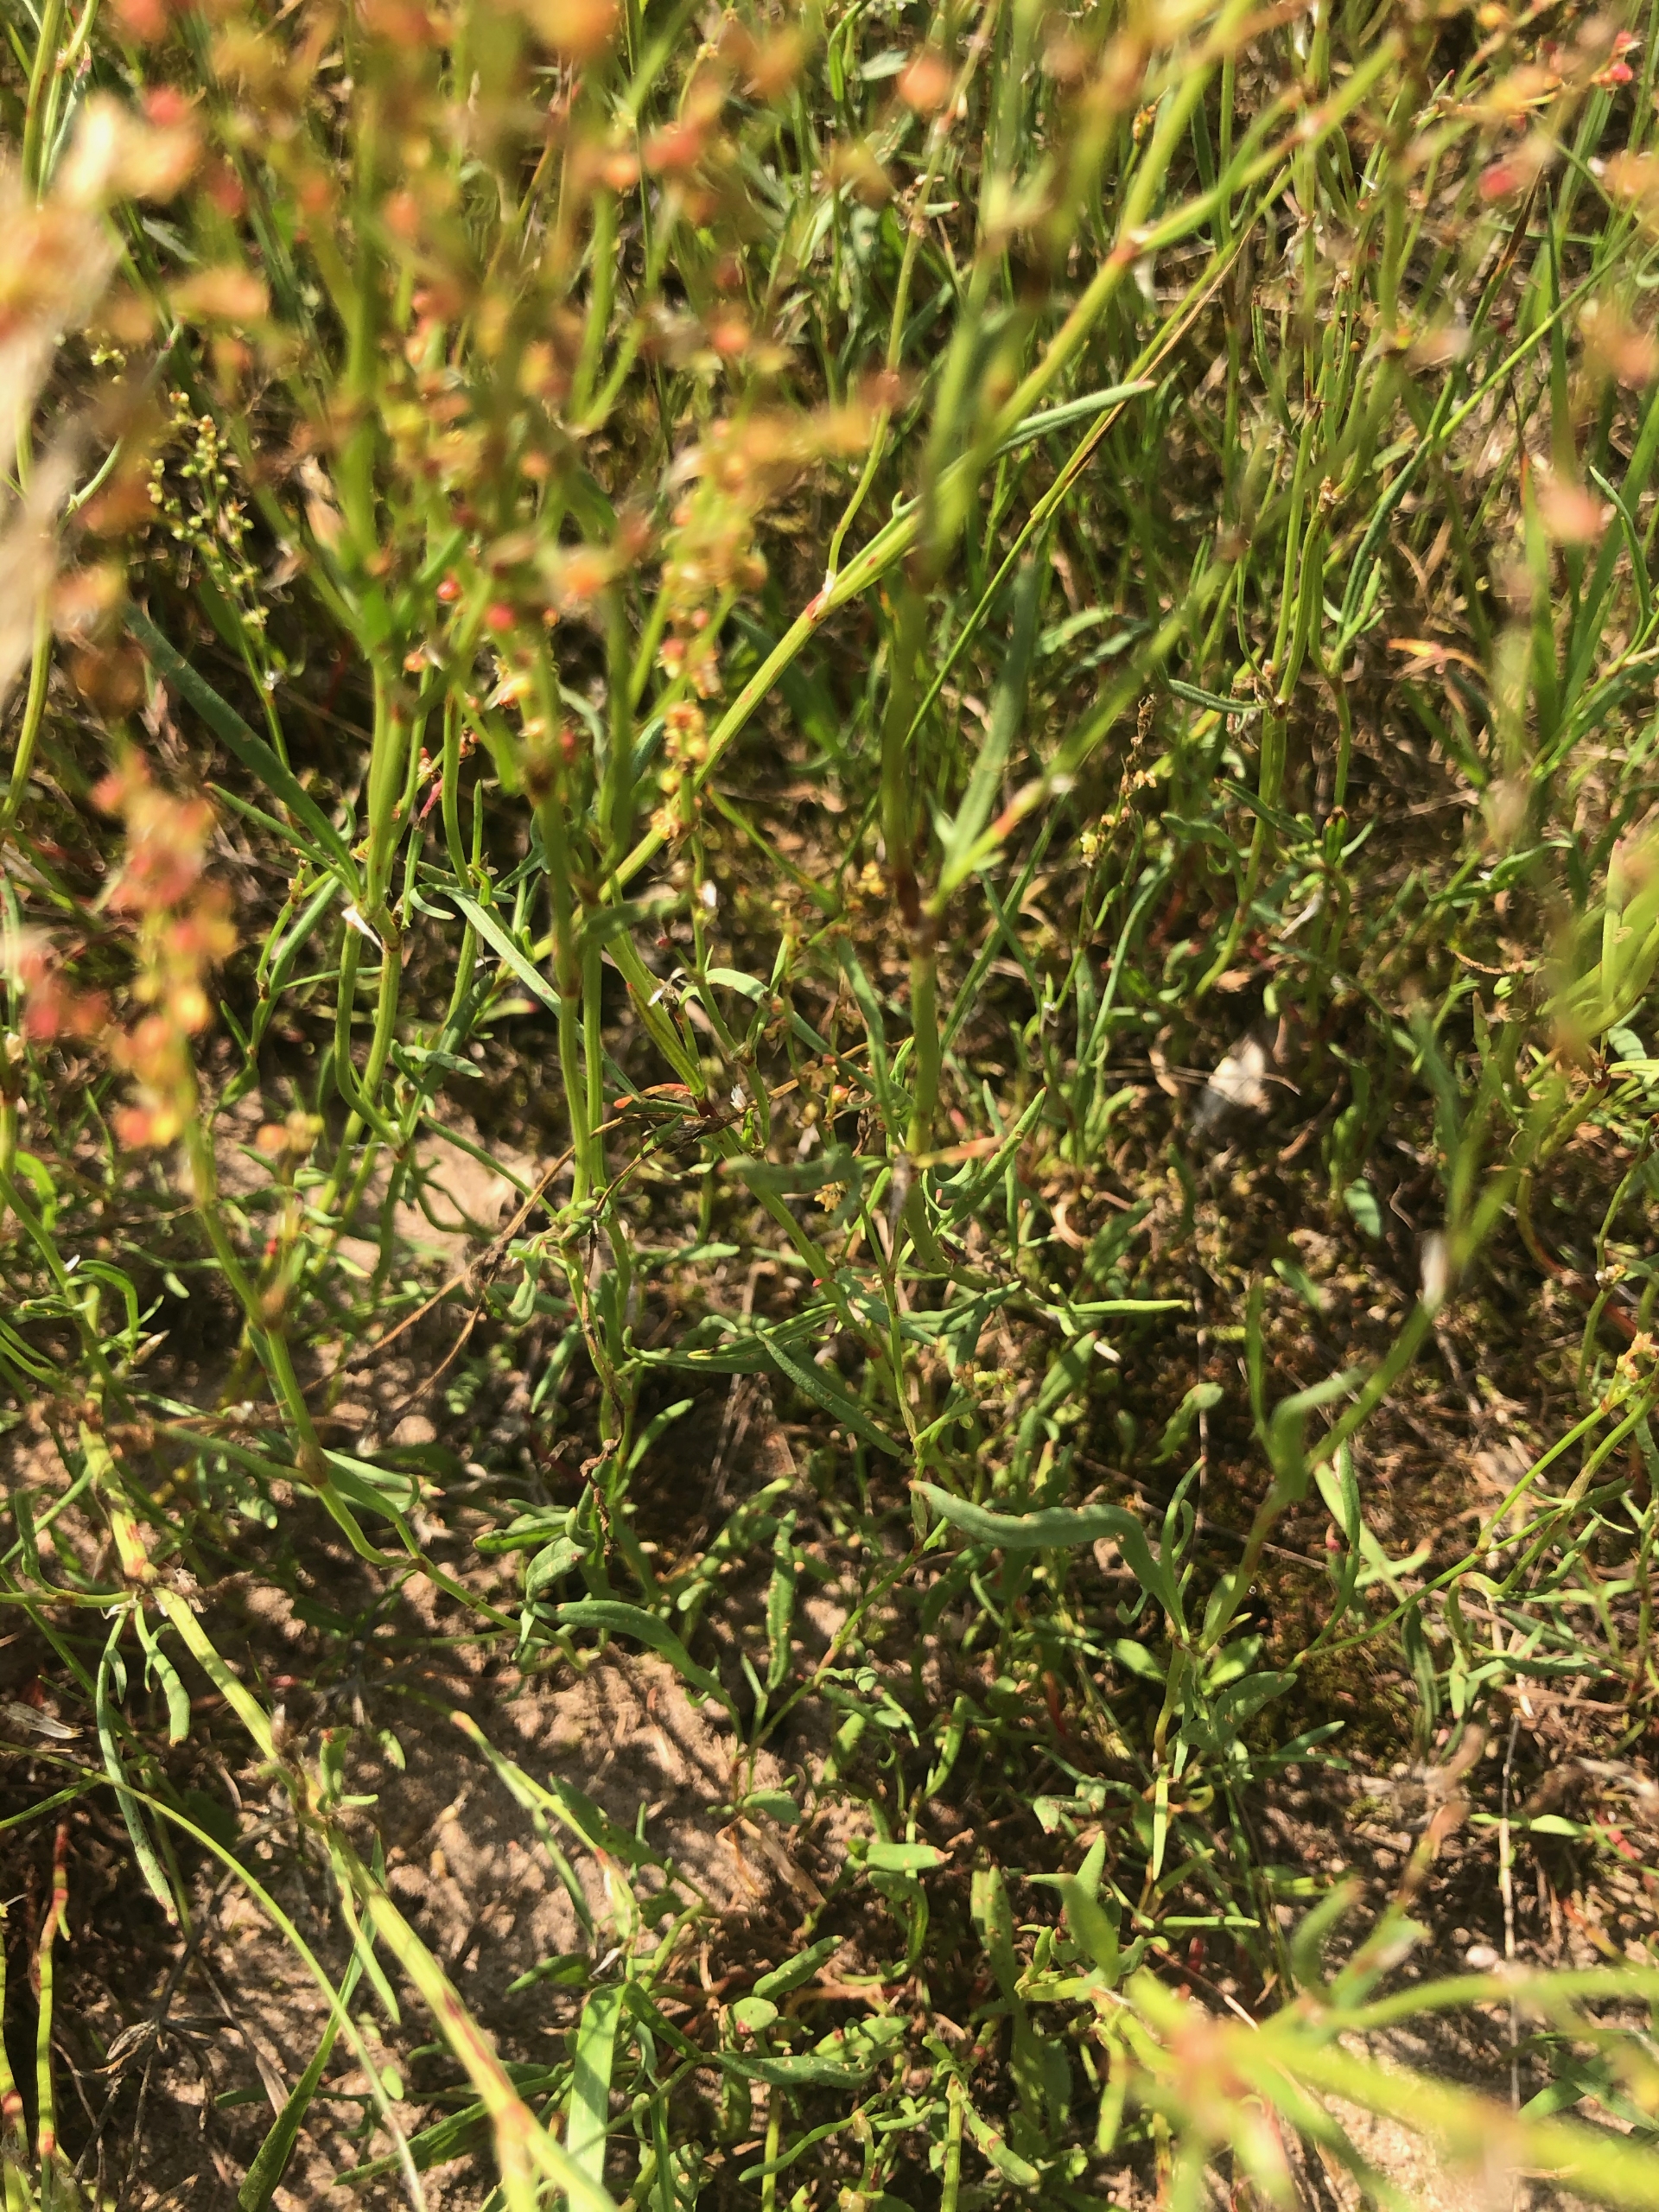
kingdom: Plantae
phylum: Tracheophyta
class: Magnoliopsida
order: Caryophyllales
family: Polygonaceae
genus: Rumex
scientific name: Rumex acetosella
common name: Rødknæ
